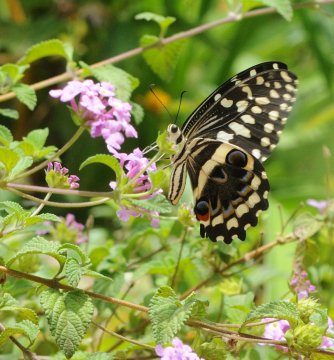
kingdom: Animalia
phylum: Arthropoda
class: Insecta
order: Lepidoptera
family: Papilionidae
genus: Papilio
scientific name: Papilio demodocus
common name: Citrus Swallowtail
